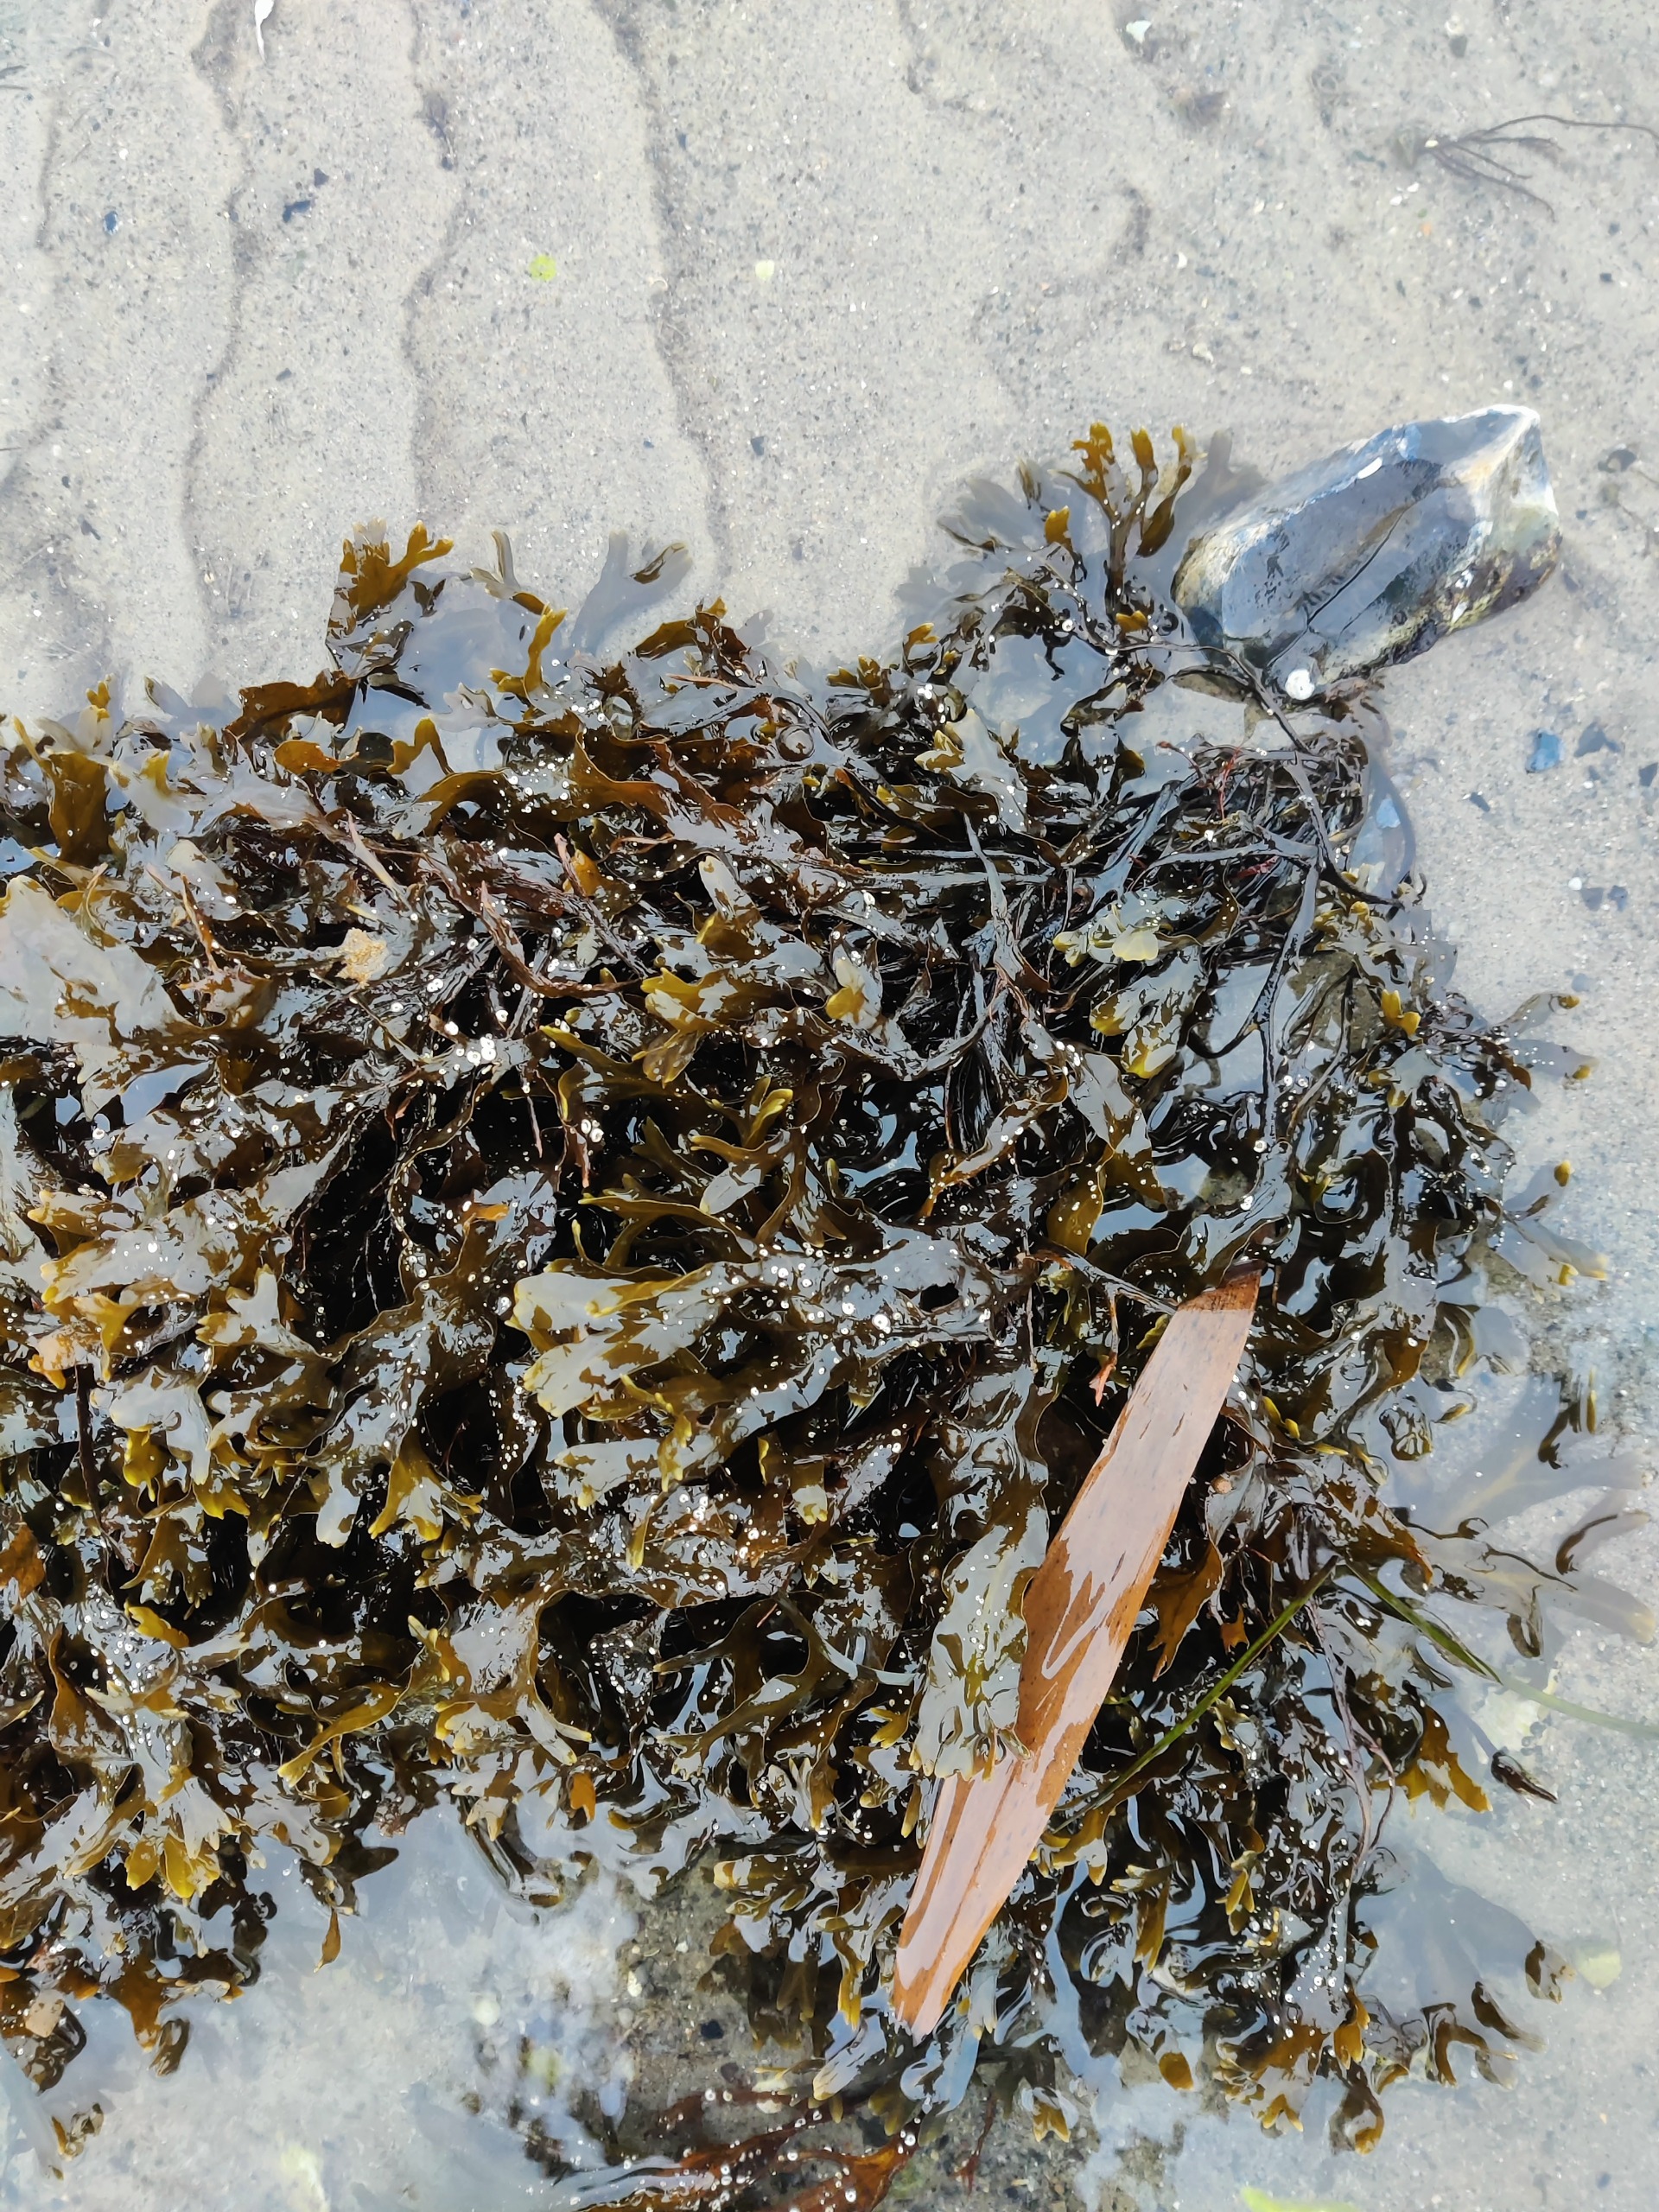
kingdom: Chromista
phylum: Ochrophyta
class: Phaeophyceae
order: Fucales
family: Fucaceae
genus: Fucus
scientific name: Fucus vesiculosus
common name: Blæretang
